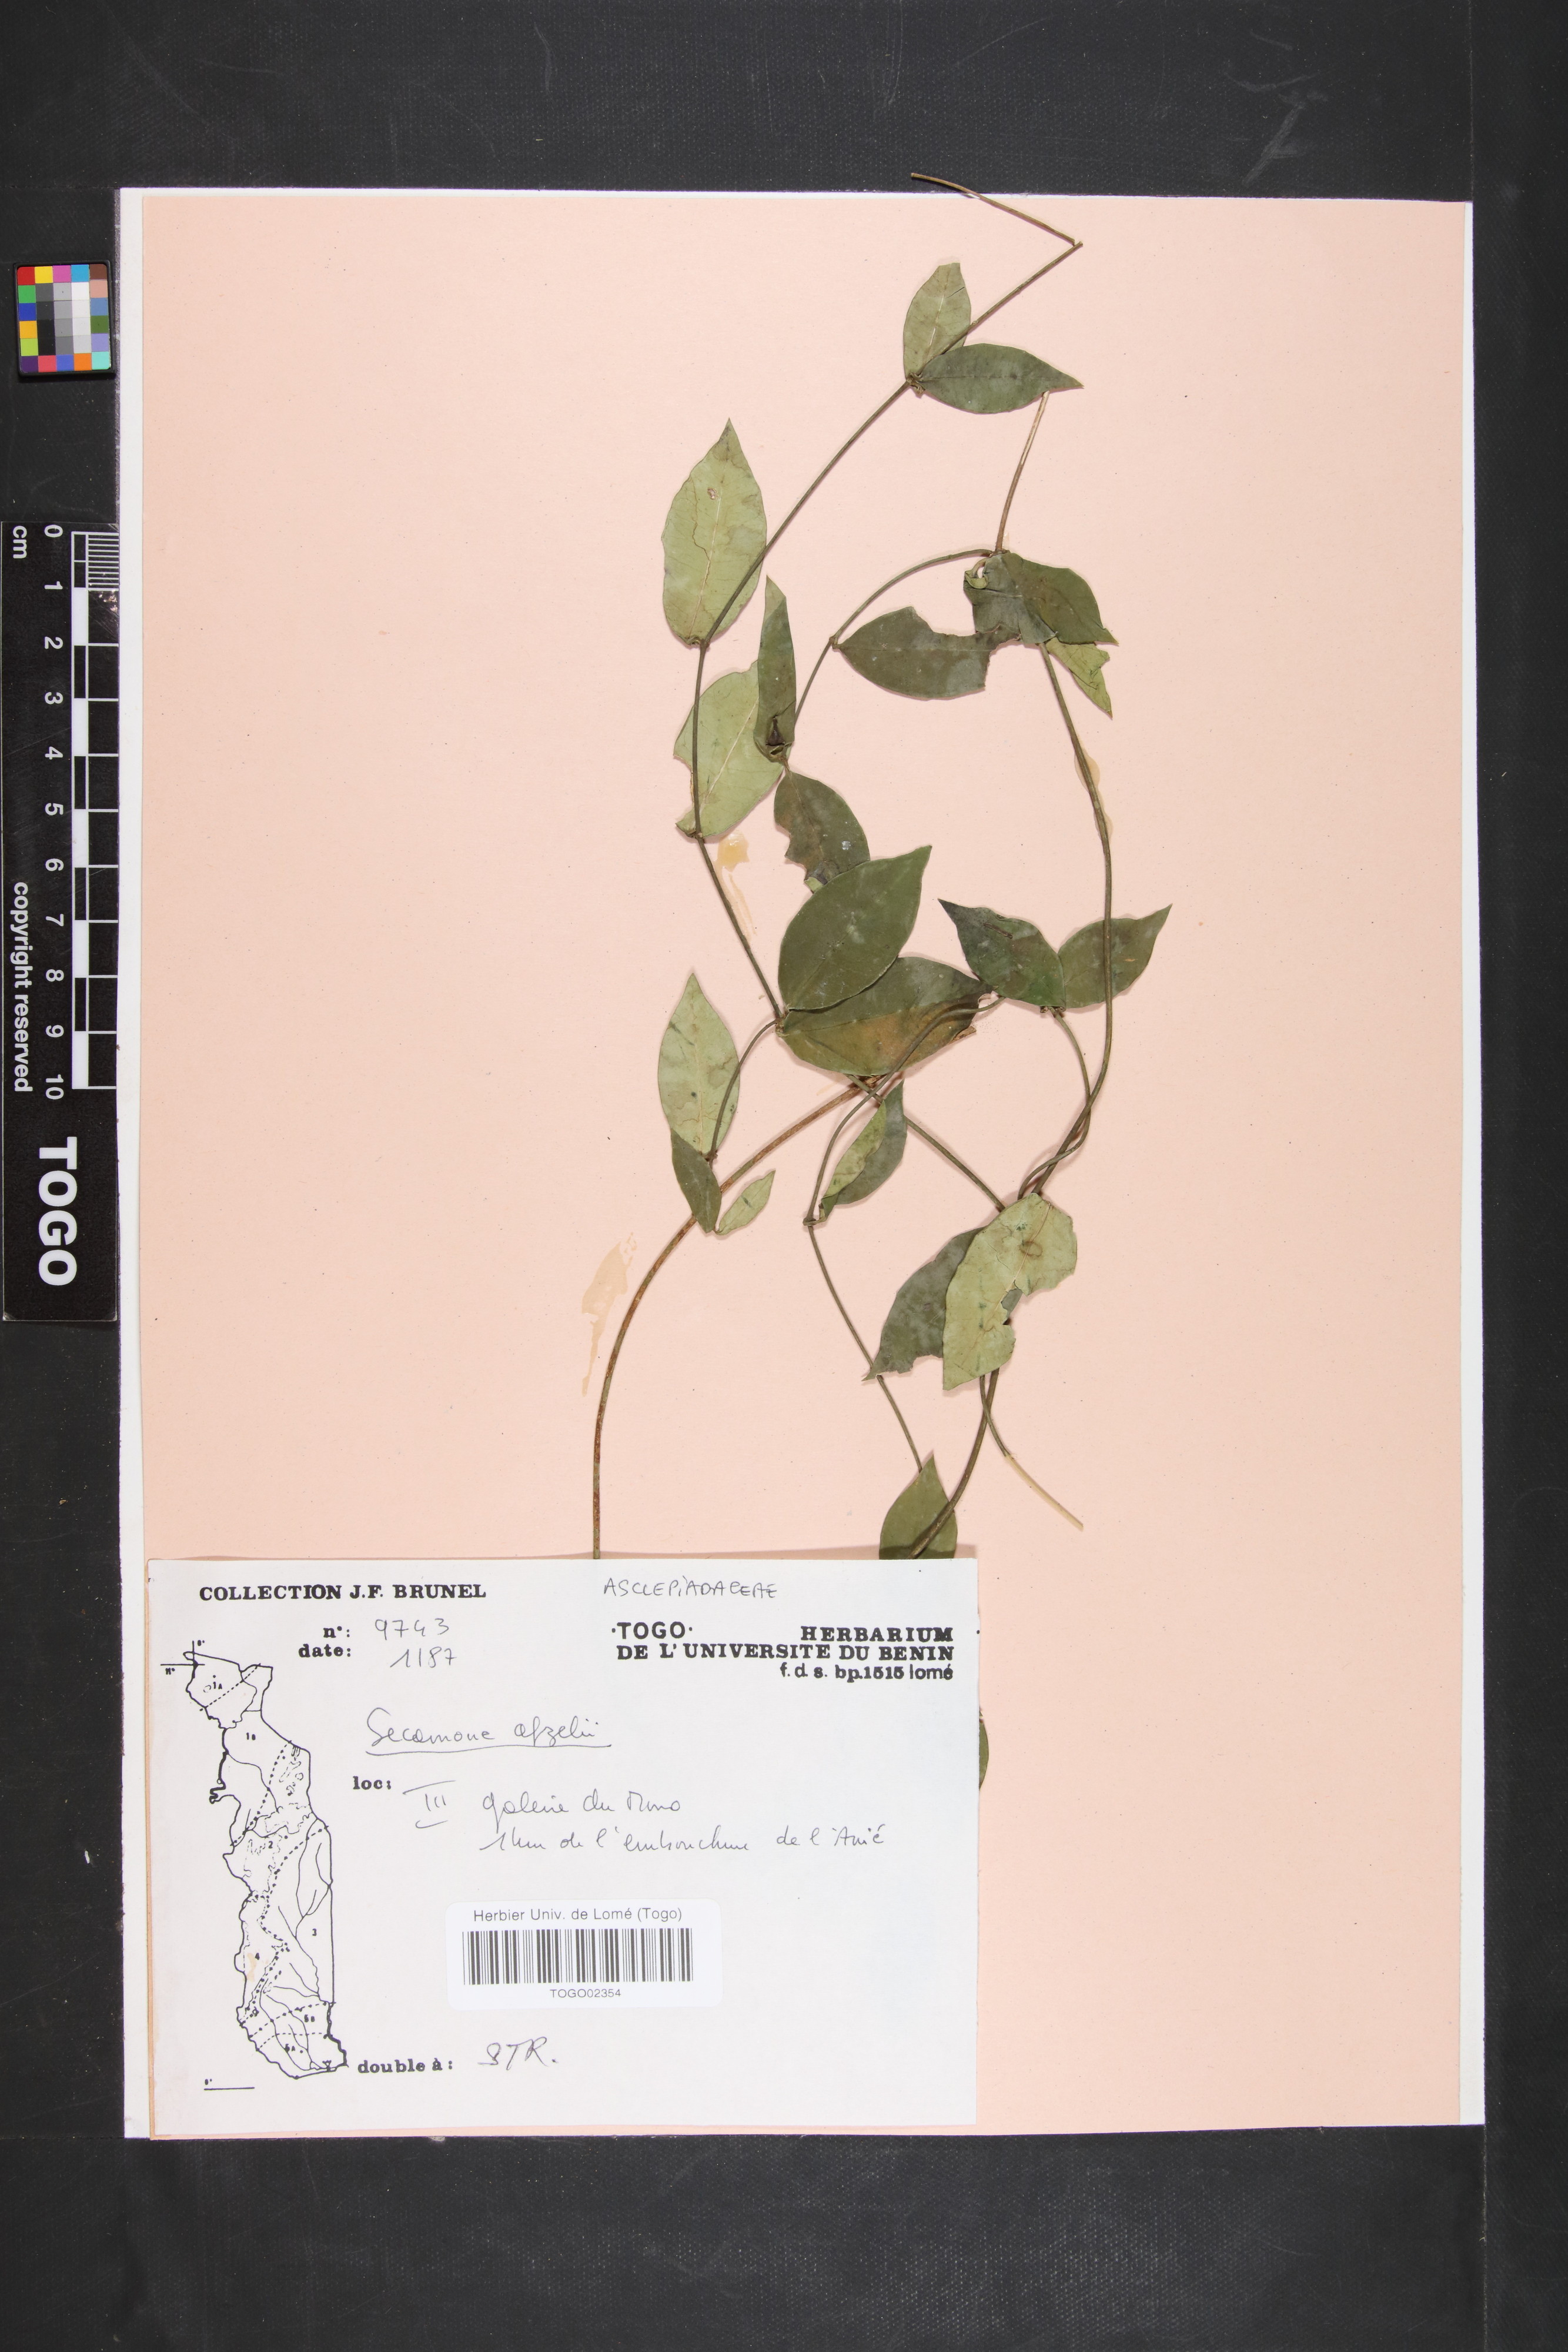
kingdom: Plantae
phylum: Tracheophyta
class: Magnoliopsida
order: Gentianales
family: Apocynaceae
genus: Secamone
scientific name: Secamone afzelii
